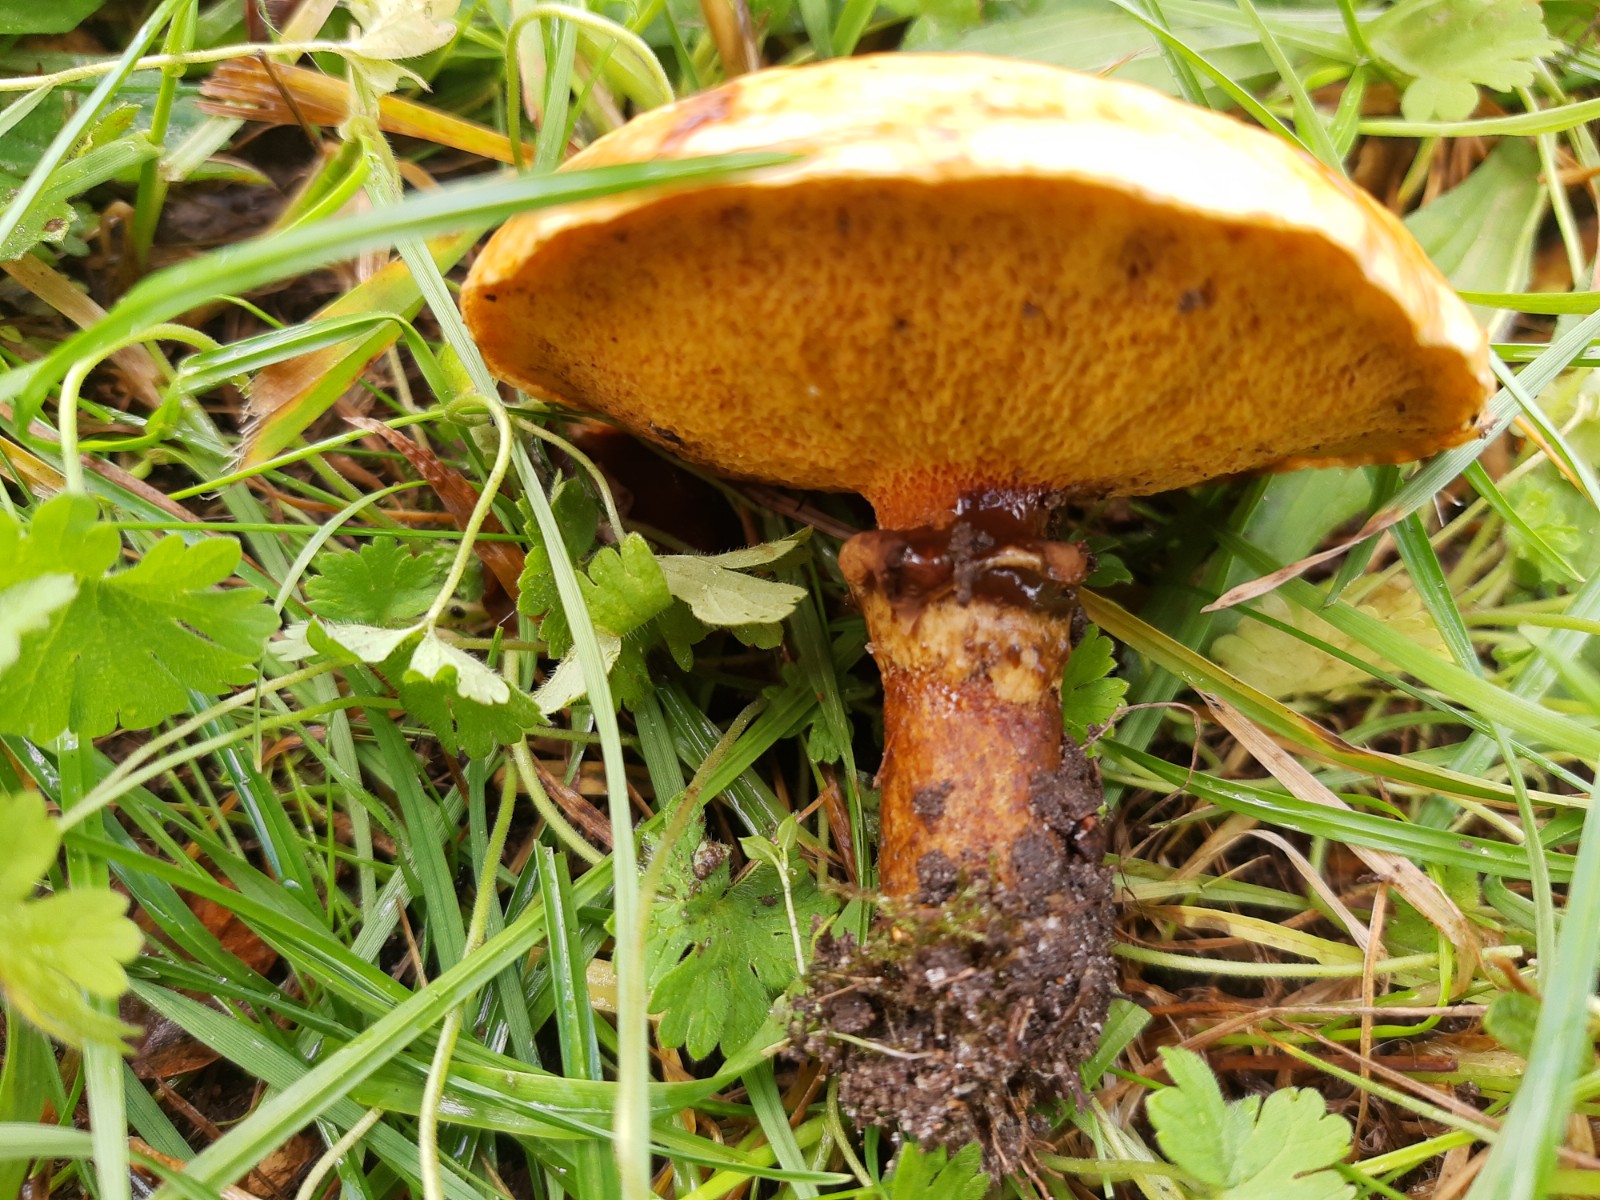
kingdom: Fungi
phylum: Basidiomycota
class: Agaricomycetes
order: Boletales
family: Suillaceae
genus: Suillus
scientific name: Suillus grevillei
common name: lærke-slimrørhat
